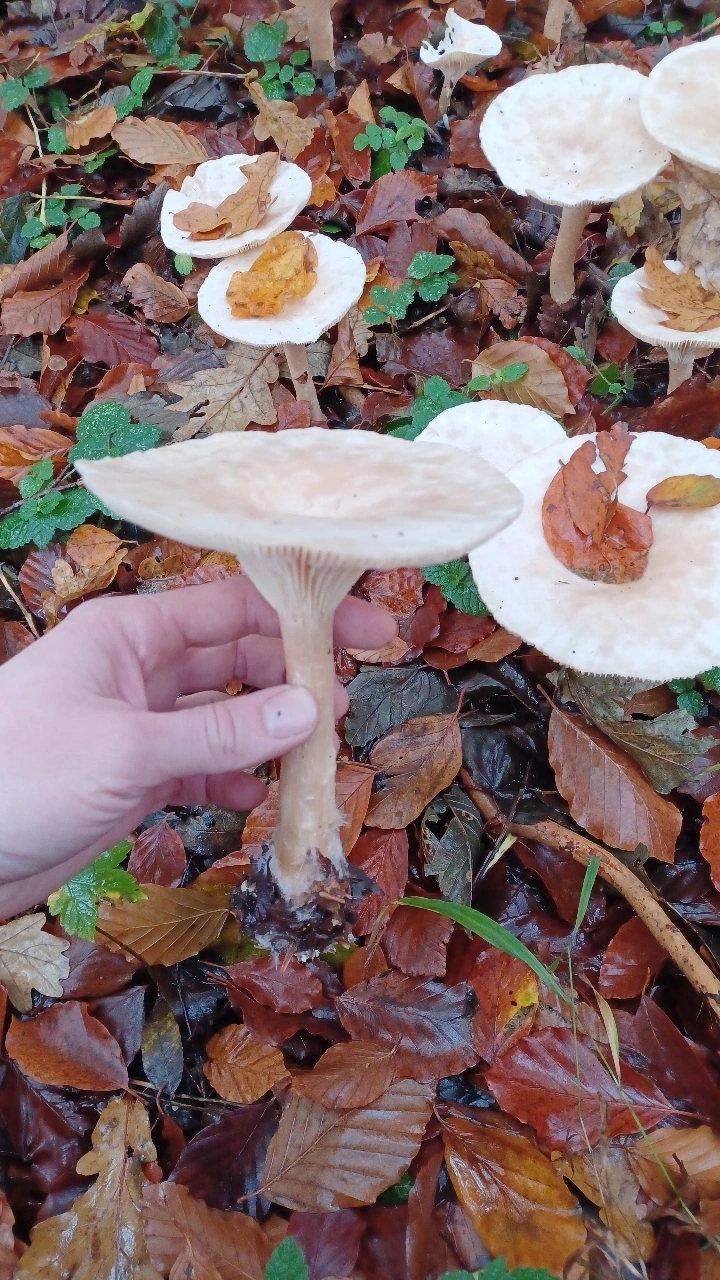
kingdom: Fungi
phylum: Basidiomycota
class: Agaricomycetes
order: Agaricales
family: Tricholomataceae
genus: Infundibulicybe
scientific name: Infundibulicybe geotropa
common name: stor tragthat
